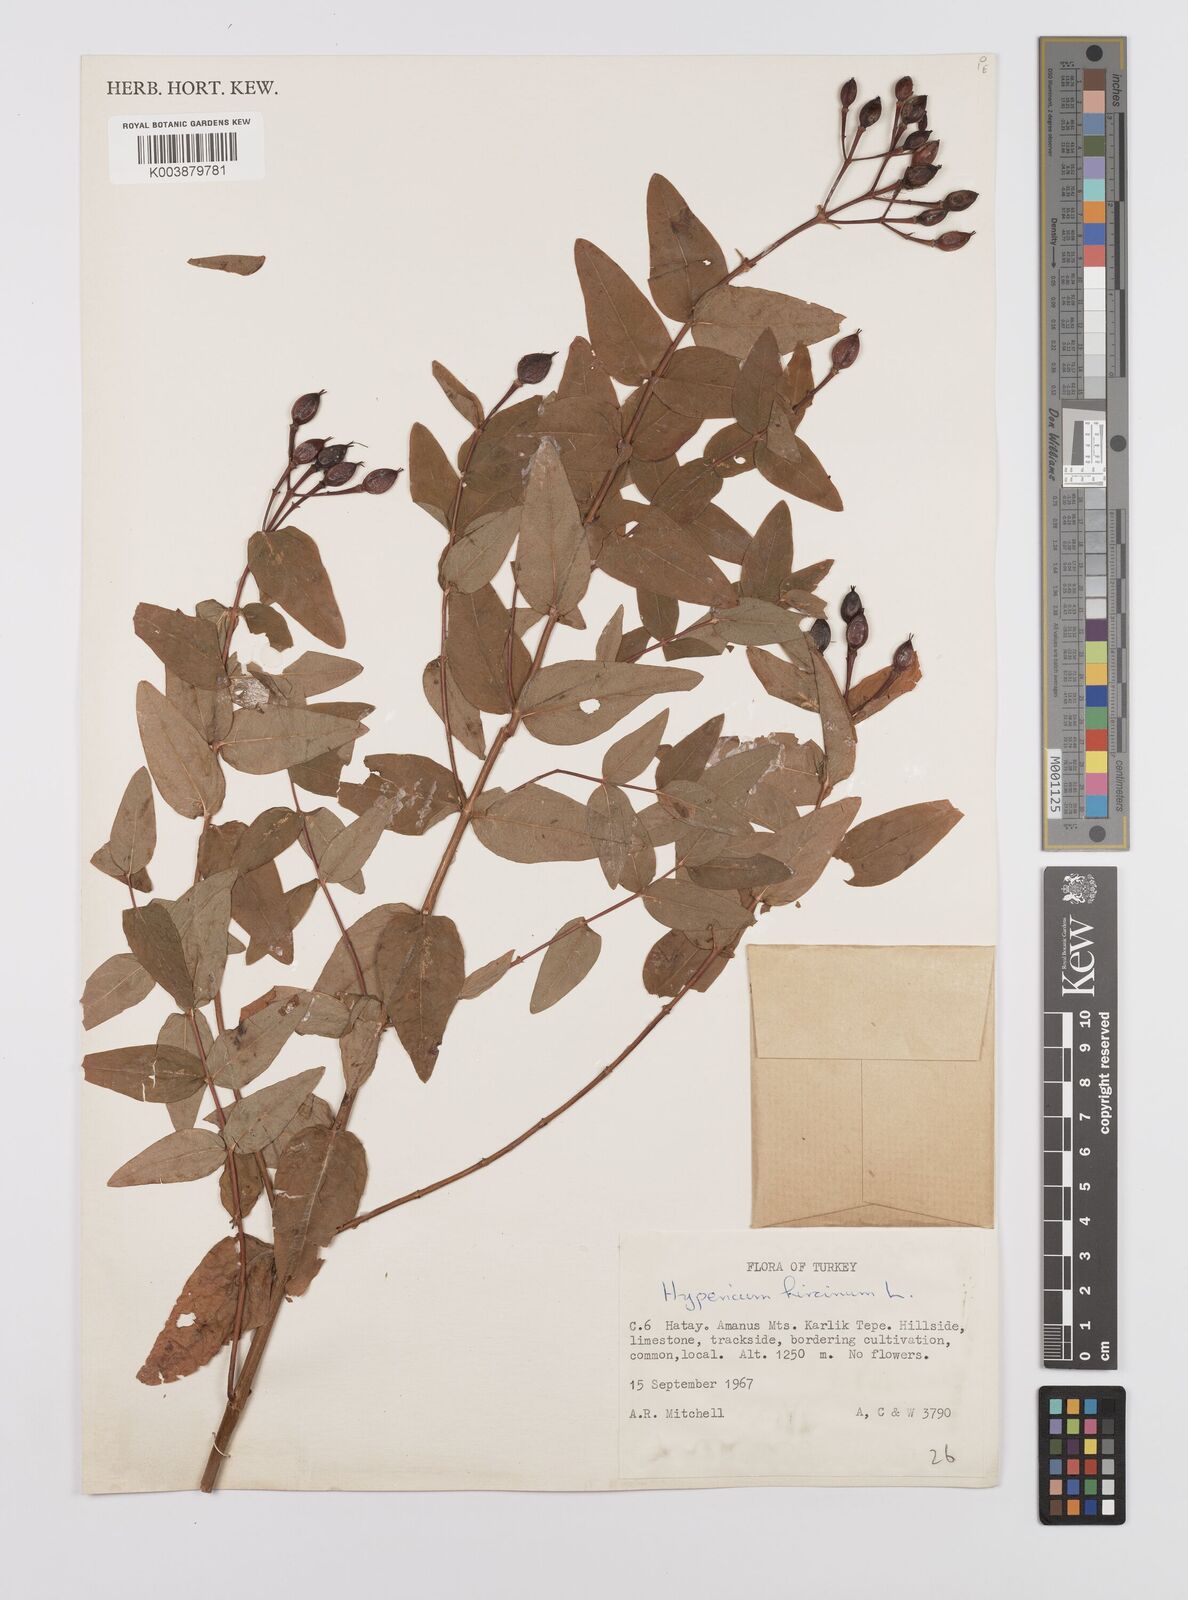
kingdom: Plantae
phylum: Tracheophyta
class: Magnoliopsida
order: Malpighiales
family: Hypericaceae
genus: Hypericum
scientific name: Hypericum hircinum
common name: Stinking tutsan
